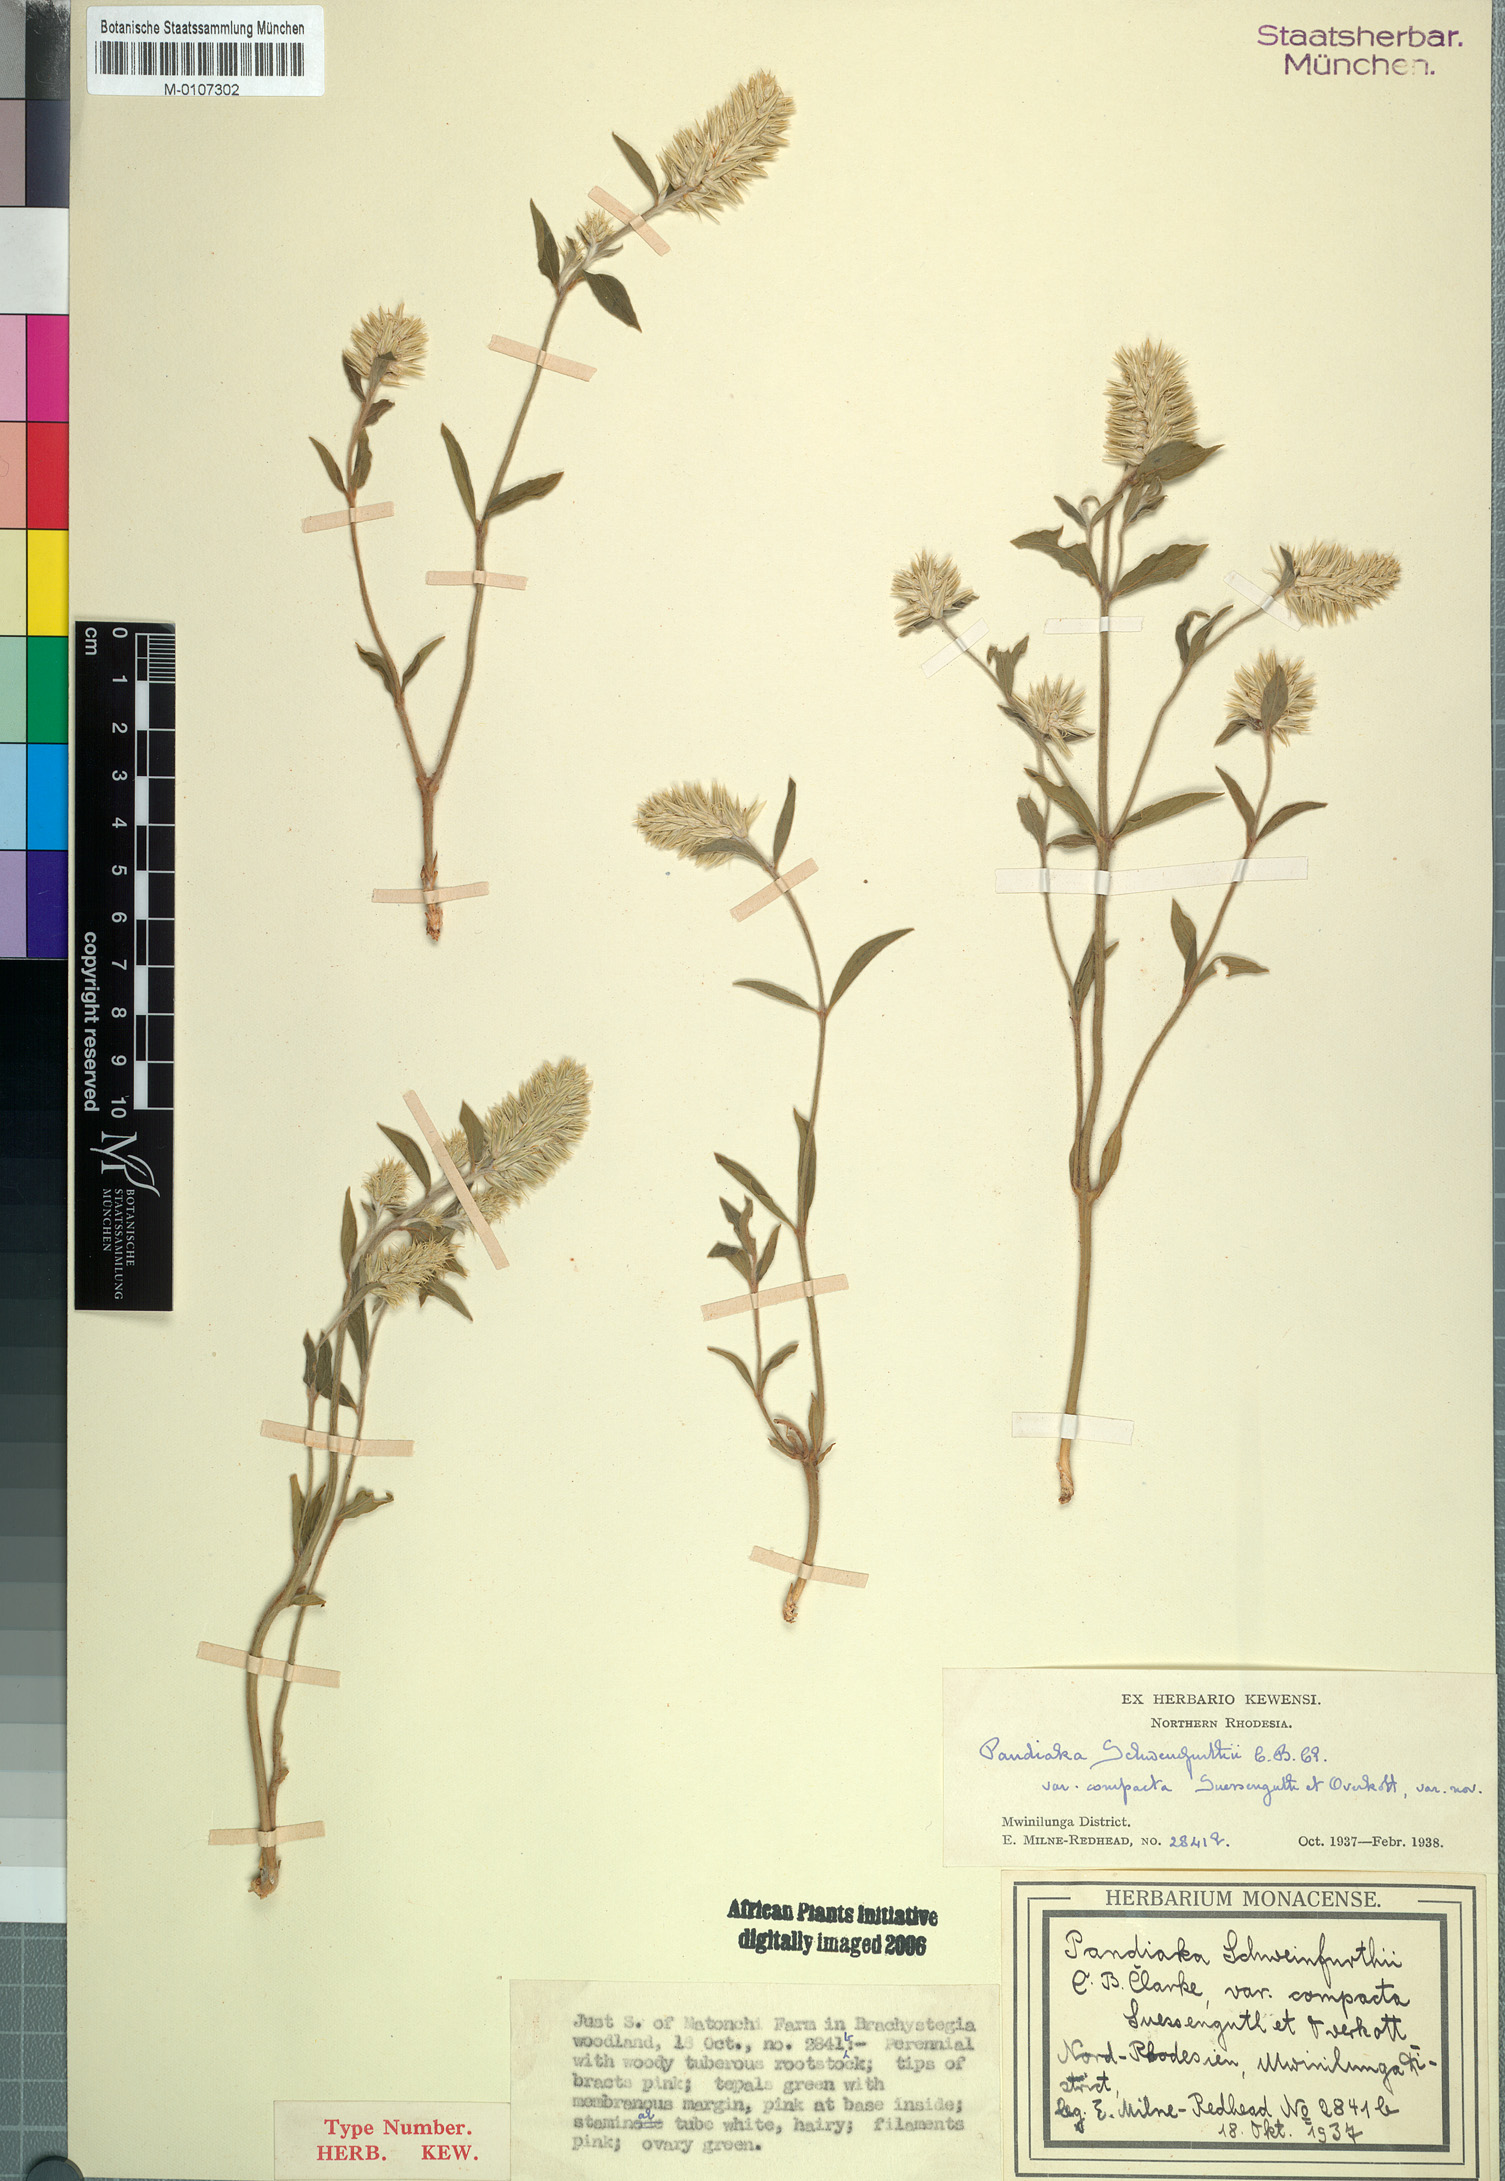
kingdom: Plantae
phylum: Tracheophyta
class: Magnoliopsida
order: Caryophyllales
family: Amaranthaceae
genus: Pandiaka
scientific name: Pandiaka welwitschii
